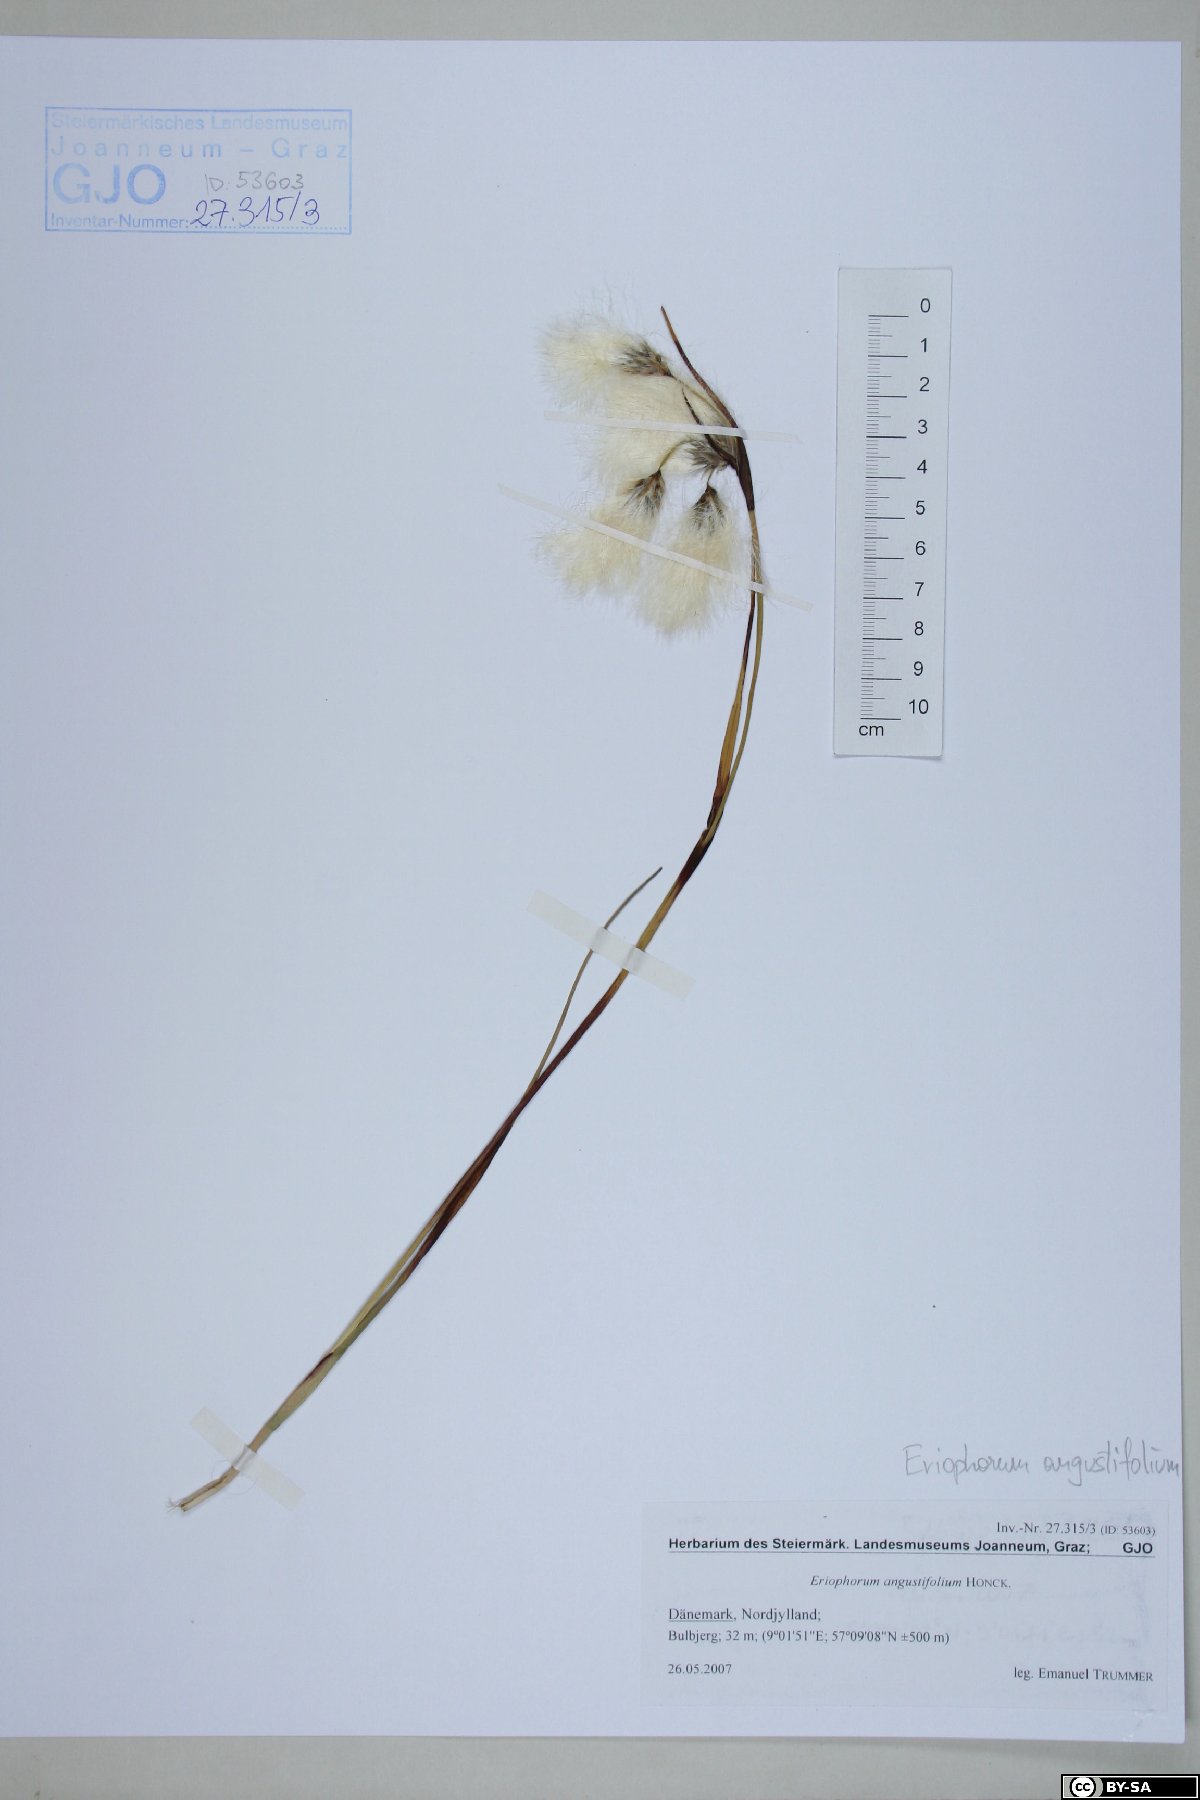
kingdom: Plantae
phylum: Tracheophyta
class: Liliopsida
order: Poales
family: Cyperaceae
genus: Eriophorum
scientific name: Eriophorum angustifolium
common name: Common cottongrass
